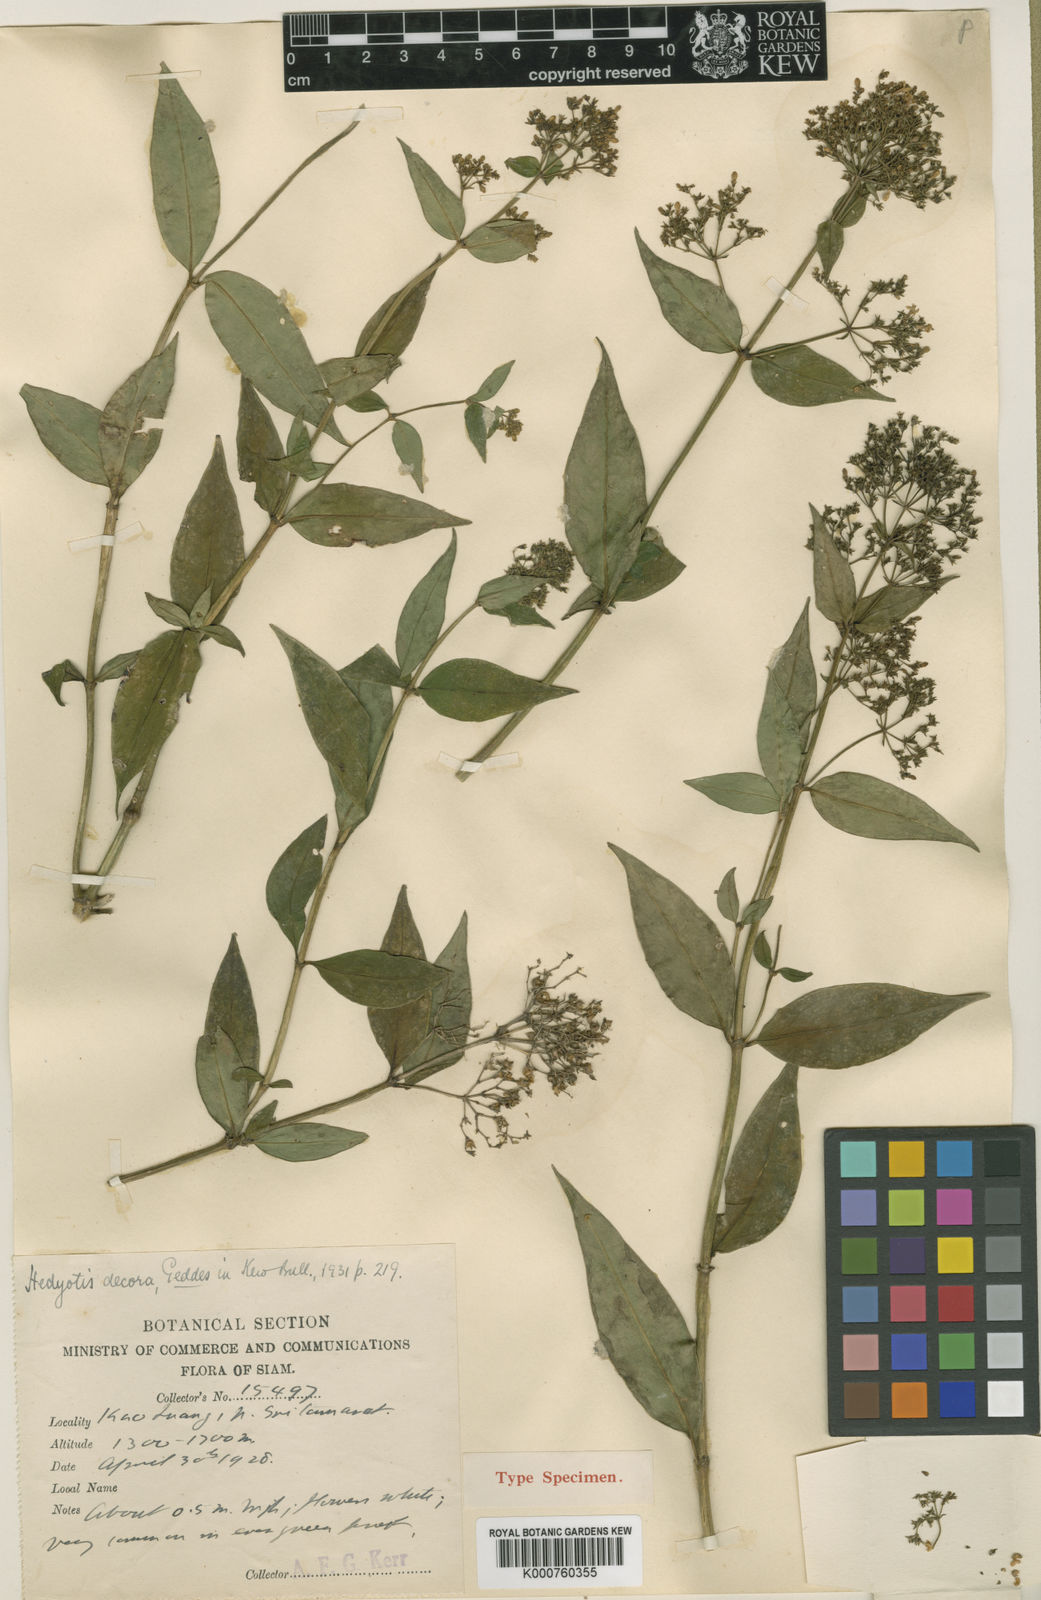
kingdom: Plantae
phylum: Tracheophyta
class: Magnoliopsida
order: Gentianales
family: Rubiaceae
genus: Hedyotis
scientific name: Hedyotis decora
